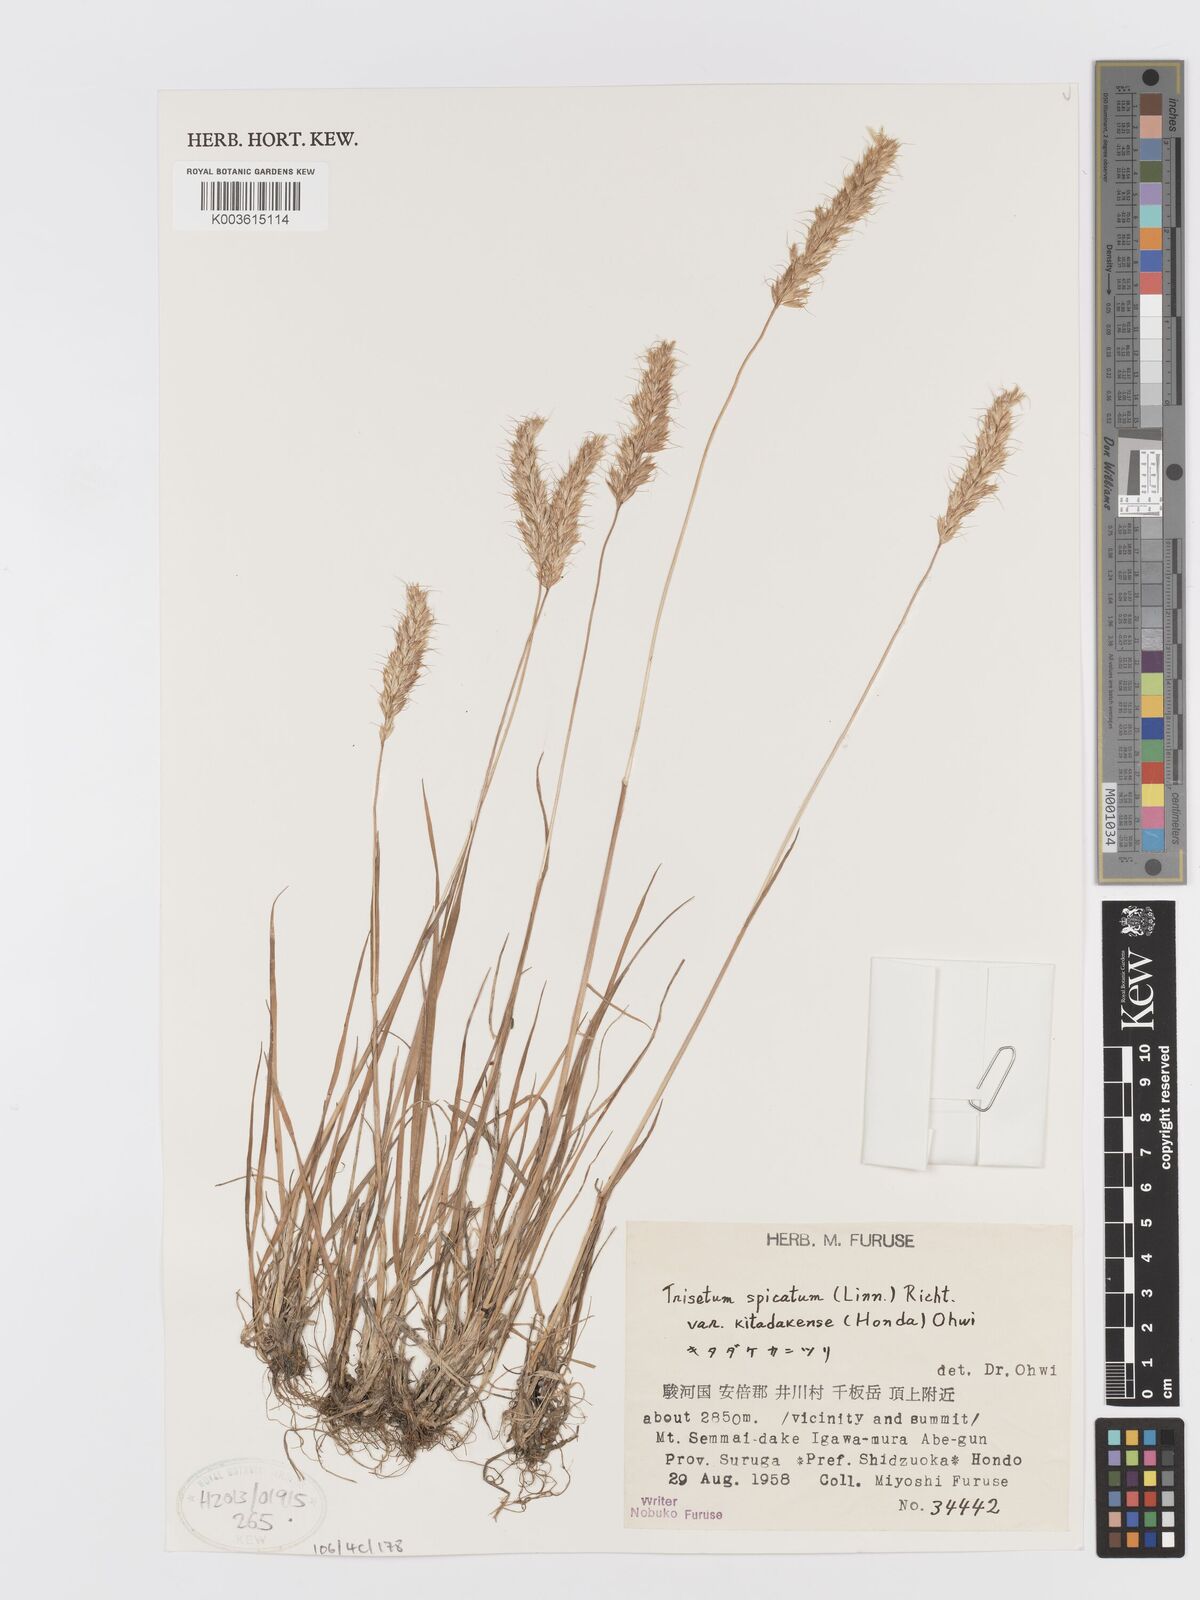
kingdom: Plantae
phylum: Tracheophyta
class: Liliopsida
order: Poales
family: Poaceae
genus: Koeleria
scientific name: Koeleria spicata
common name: Mountain trisetum
